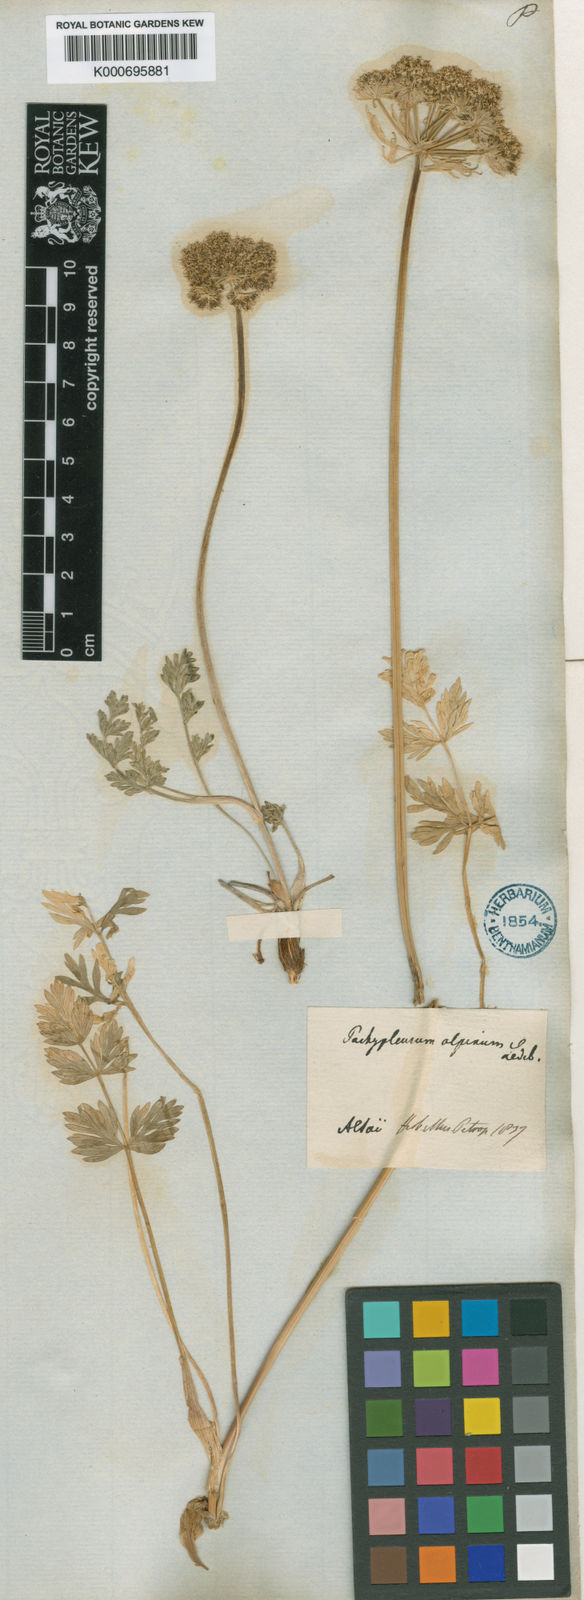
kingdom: Plantae
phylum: Tracheophyta
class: Magnoliopsida
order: Apiales
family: Apiaceae
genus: Pachypleurum
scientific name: Pachypleurum mutellinoides
